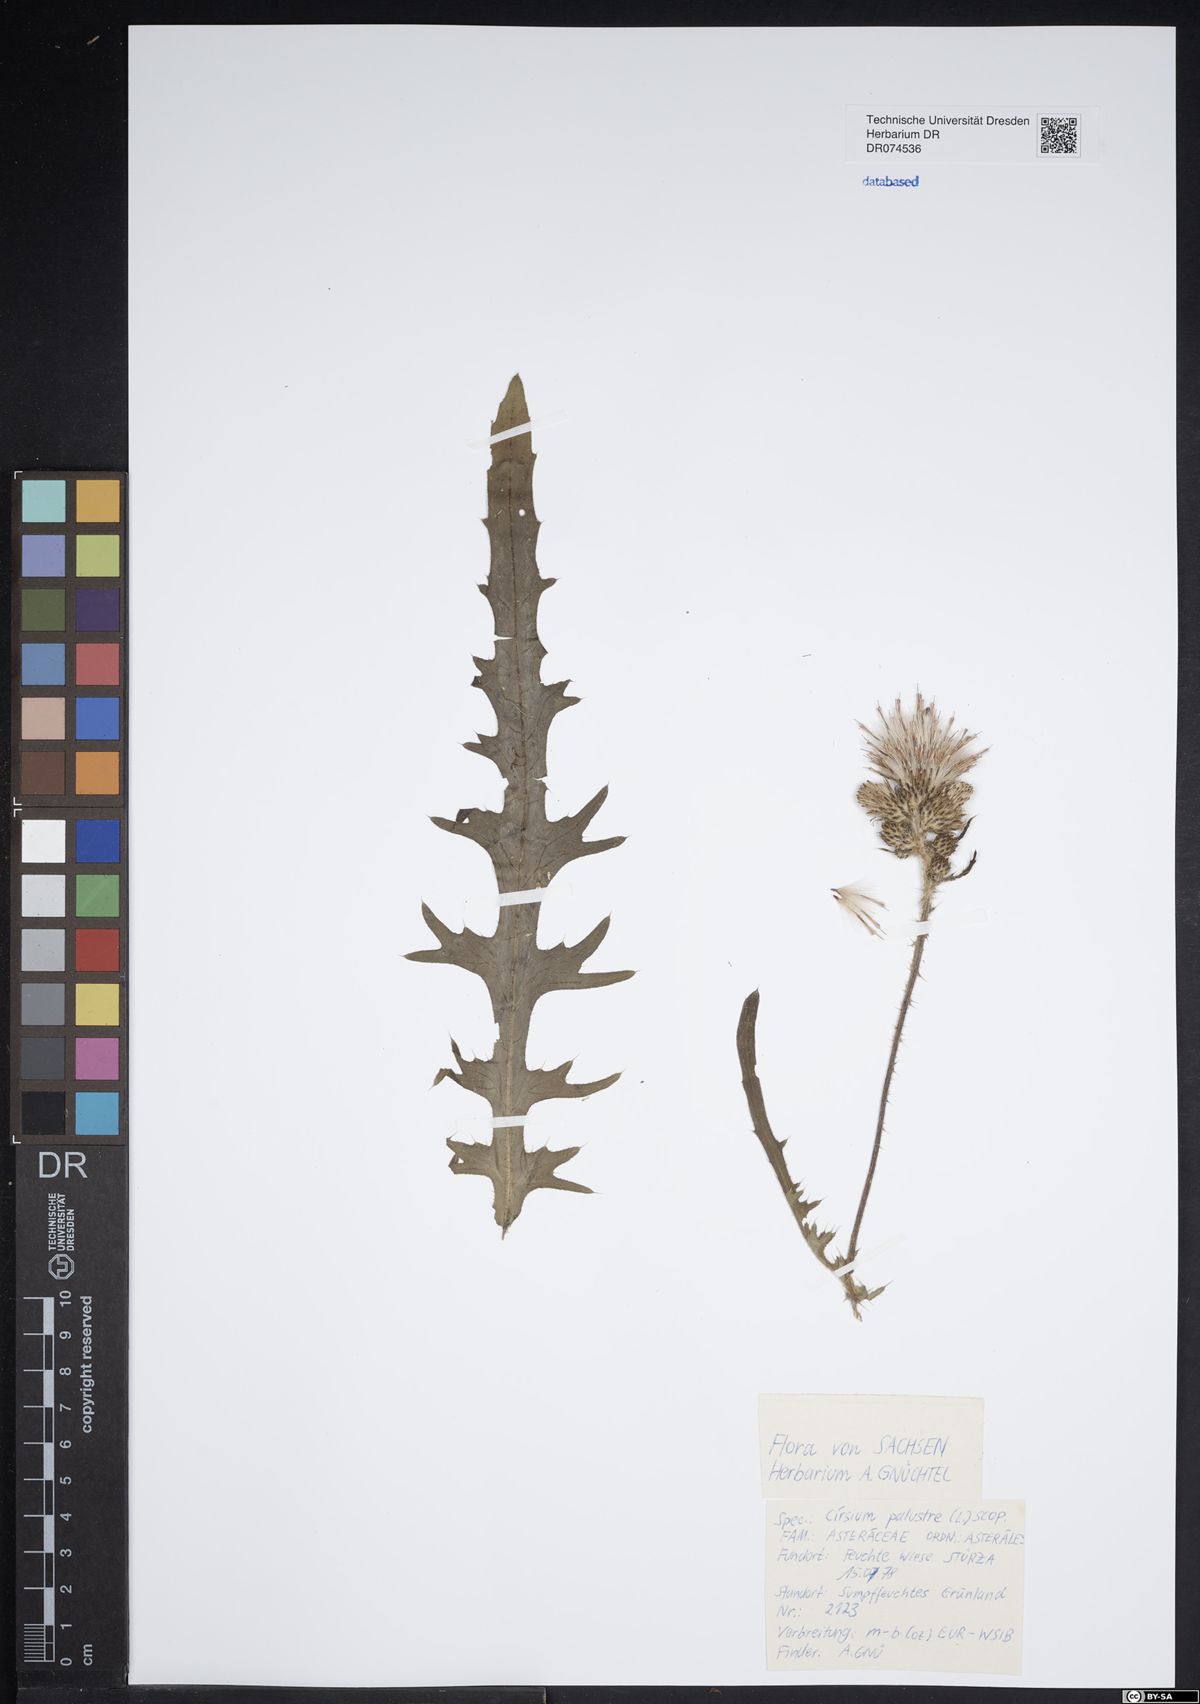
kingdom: Plantae
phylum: Tracheophyta
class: Magnoliopsida
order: Asterales
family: Asteraceae
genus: Cirsium
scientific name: Cirsium palustre
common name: Marsh thistle
